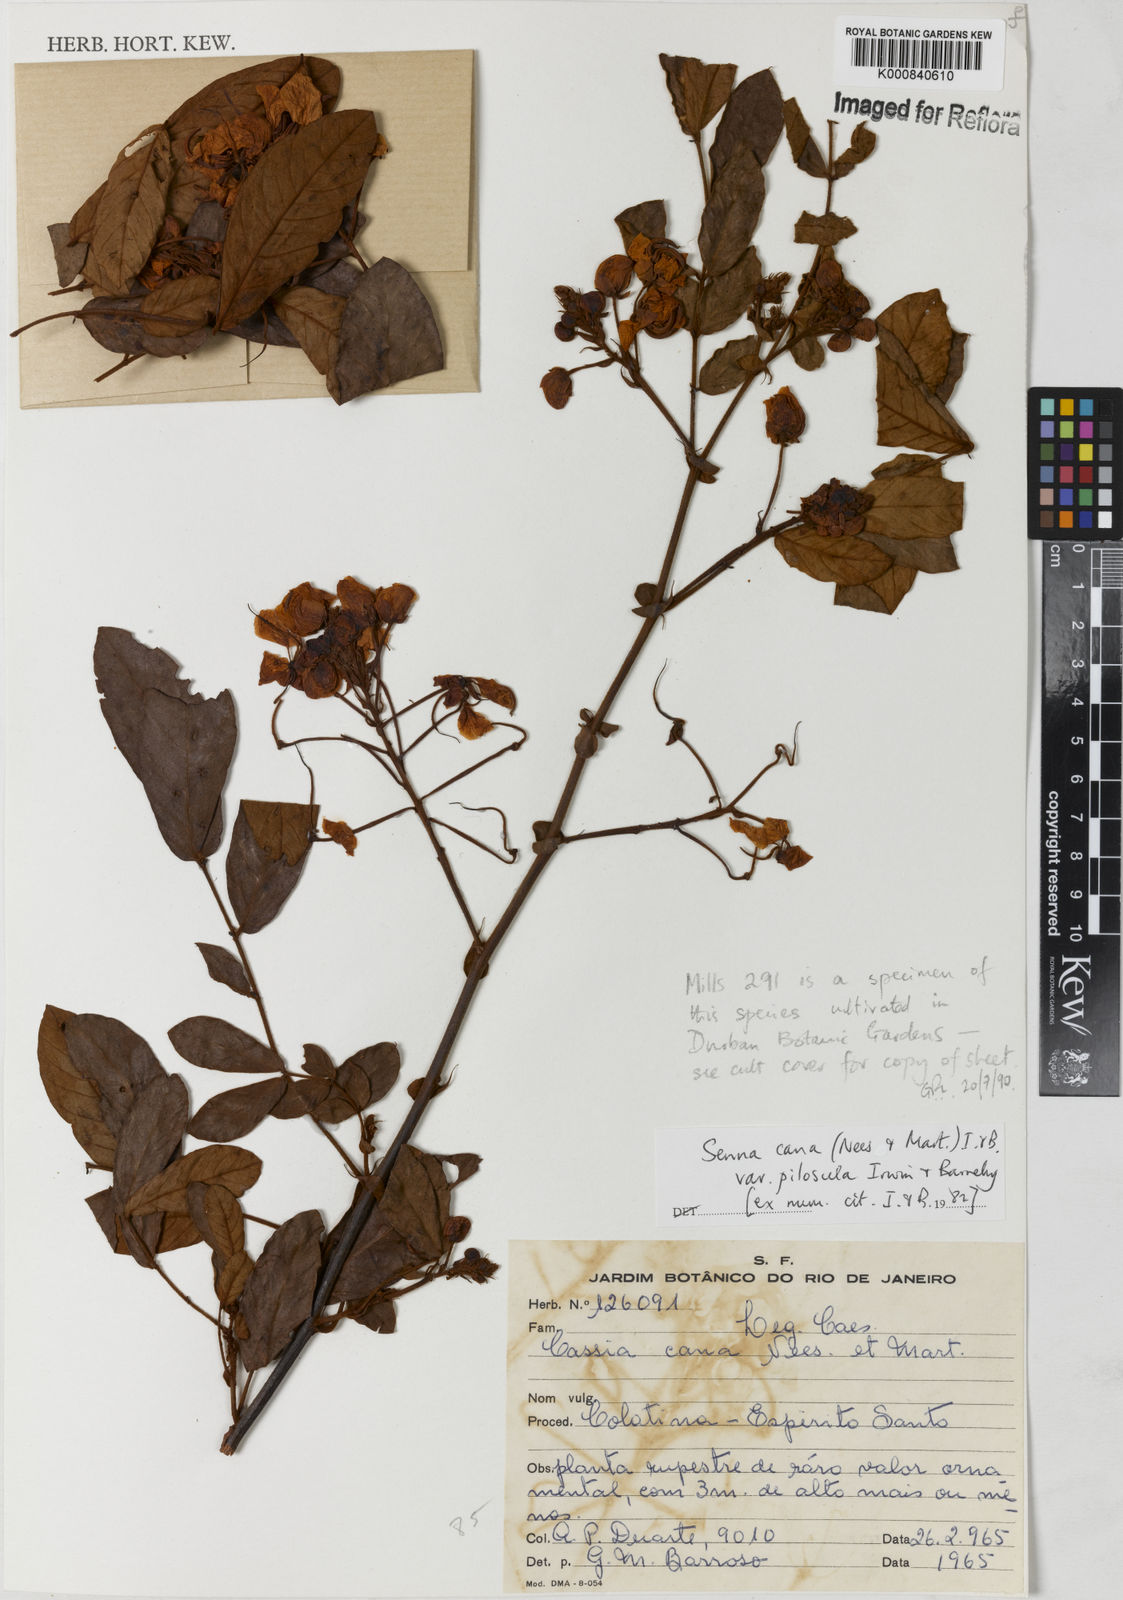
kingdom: Plantae
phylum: Tracheophyta
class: Magnoliopsida
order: Fabales
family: Fabaceae
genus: Senna
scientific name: Senna cana
